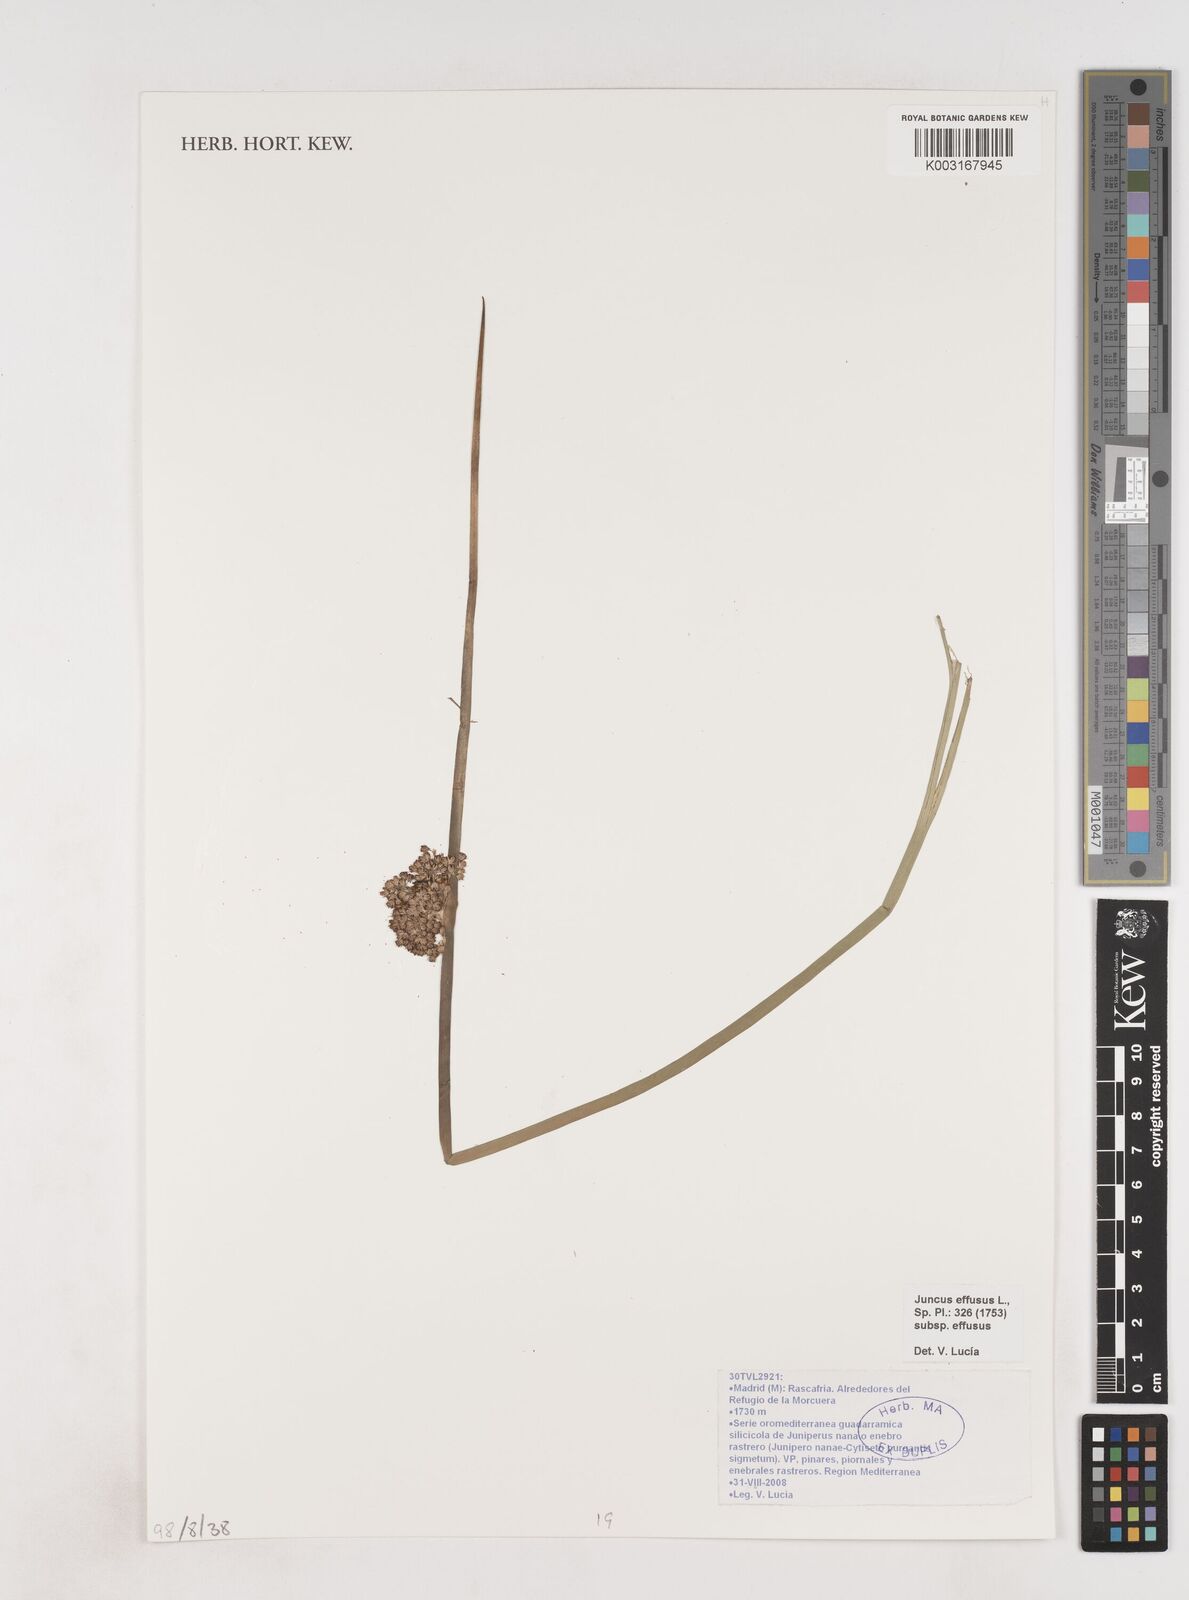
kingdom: Plantae
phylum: Tracheophyta
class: Liliopsida
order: Poales
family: Juncaceae
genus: Juncus
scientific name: Juncus effusus
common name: Soft rush
